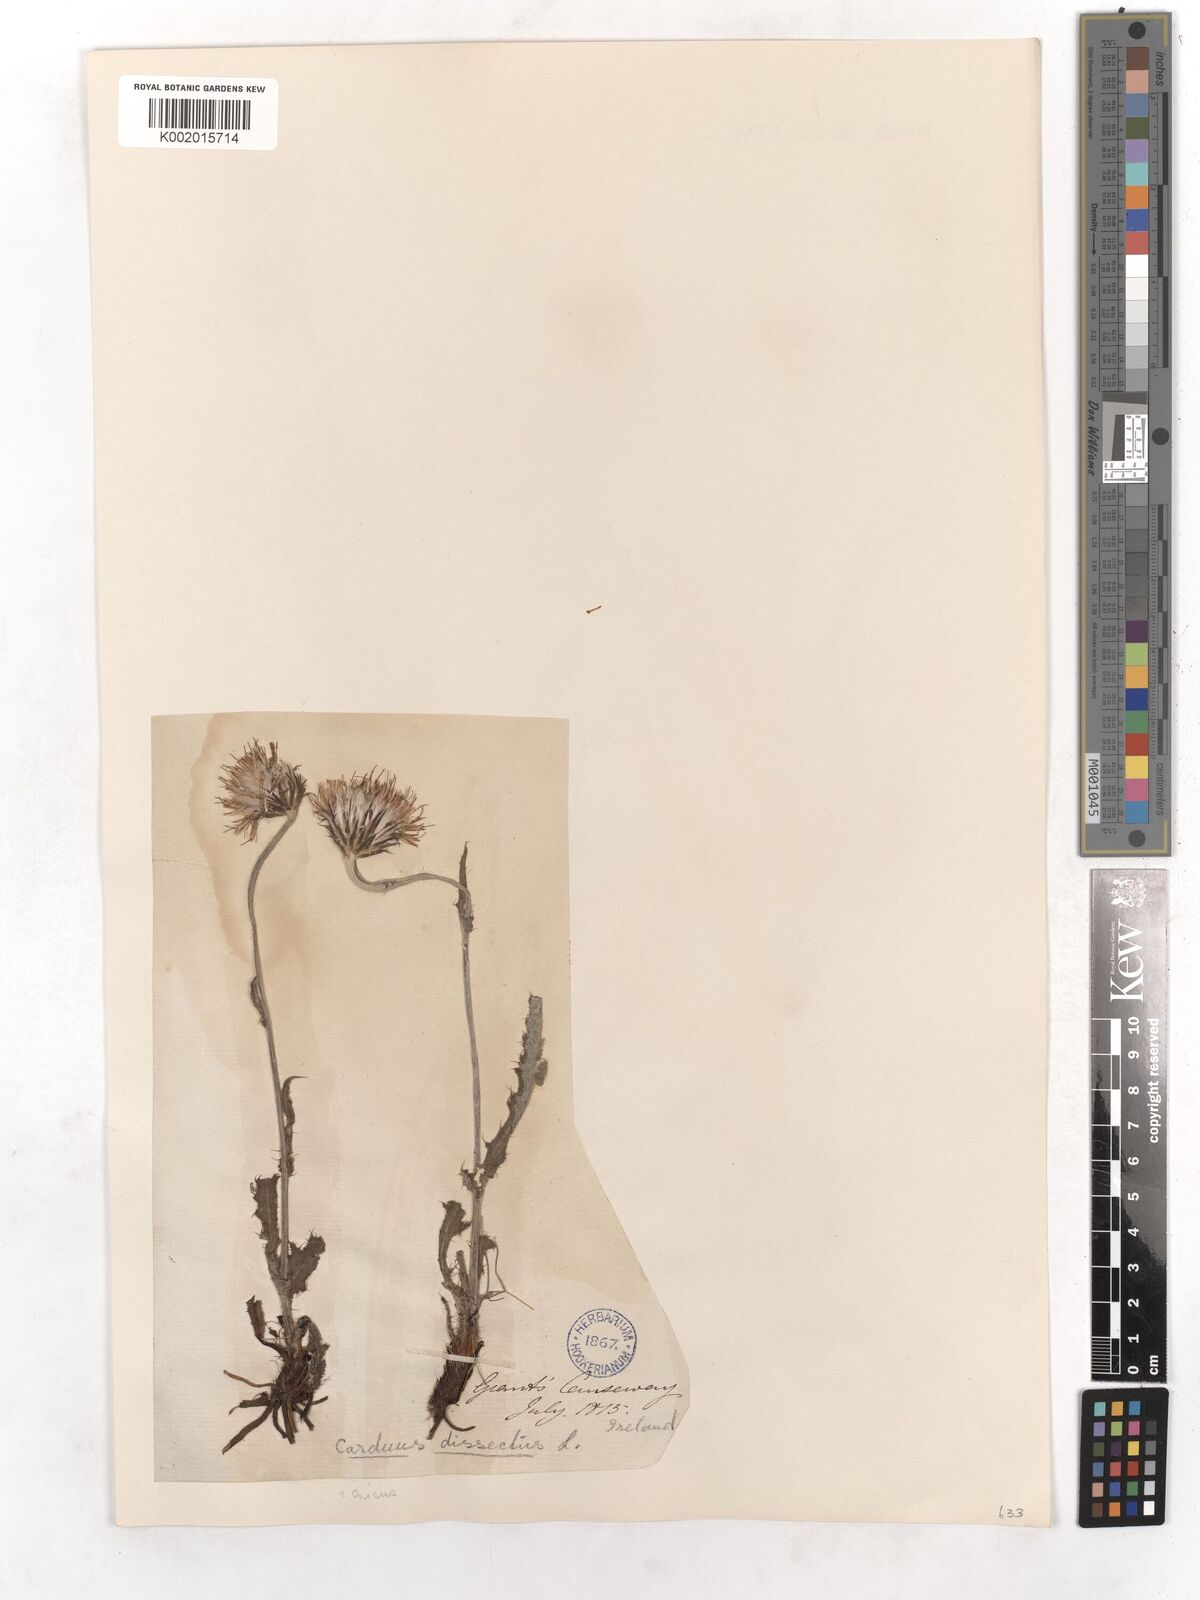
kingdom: Plantae
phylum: Tracheophyta
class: Magnoliopsida
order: Asterales
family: Asteraceae
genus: Cirsium
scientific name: Cirsium dissectum
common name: Meadow thistle
